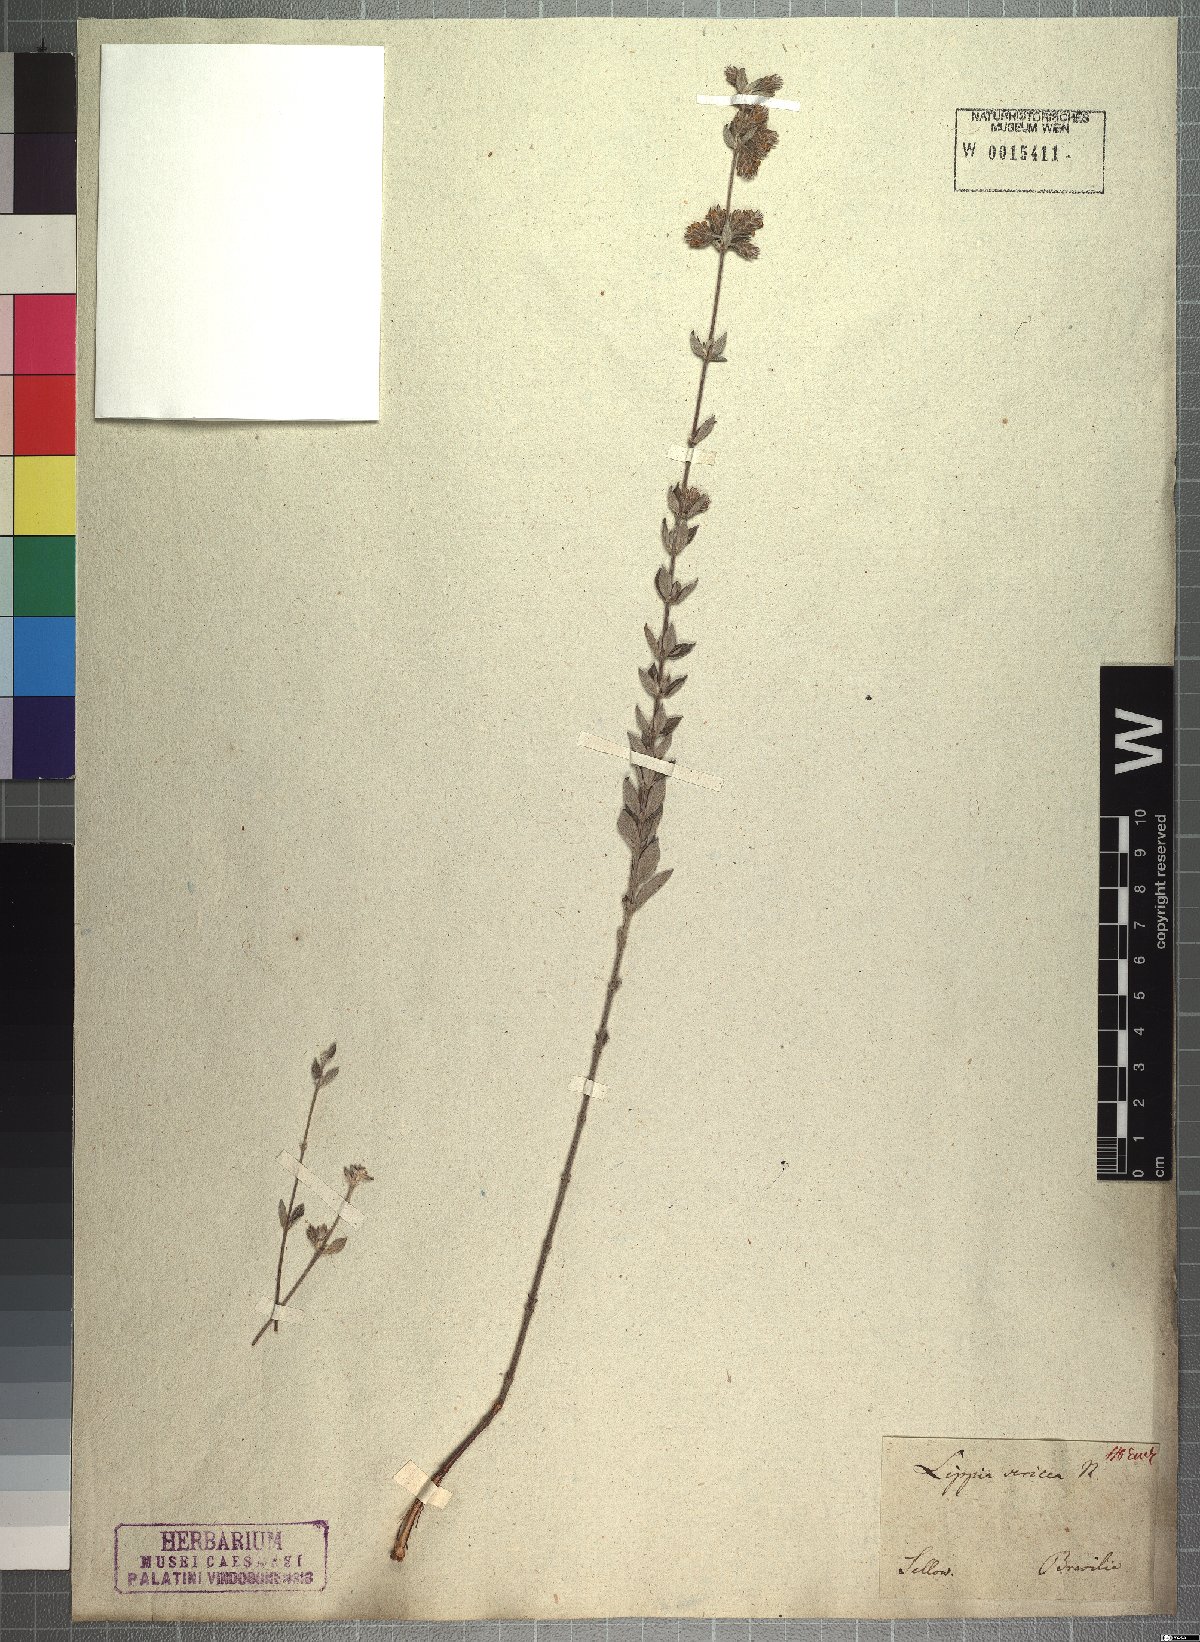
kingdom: Plantae
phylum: Tracheophyta
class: Magnoliopsida
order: Lamiales
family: Verbenaceae
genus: Lippia
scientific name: Lippia sericea
